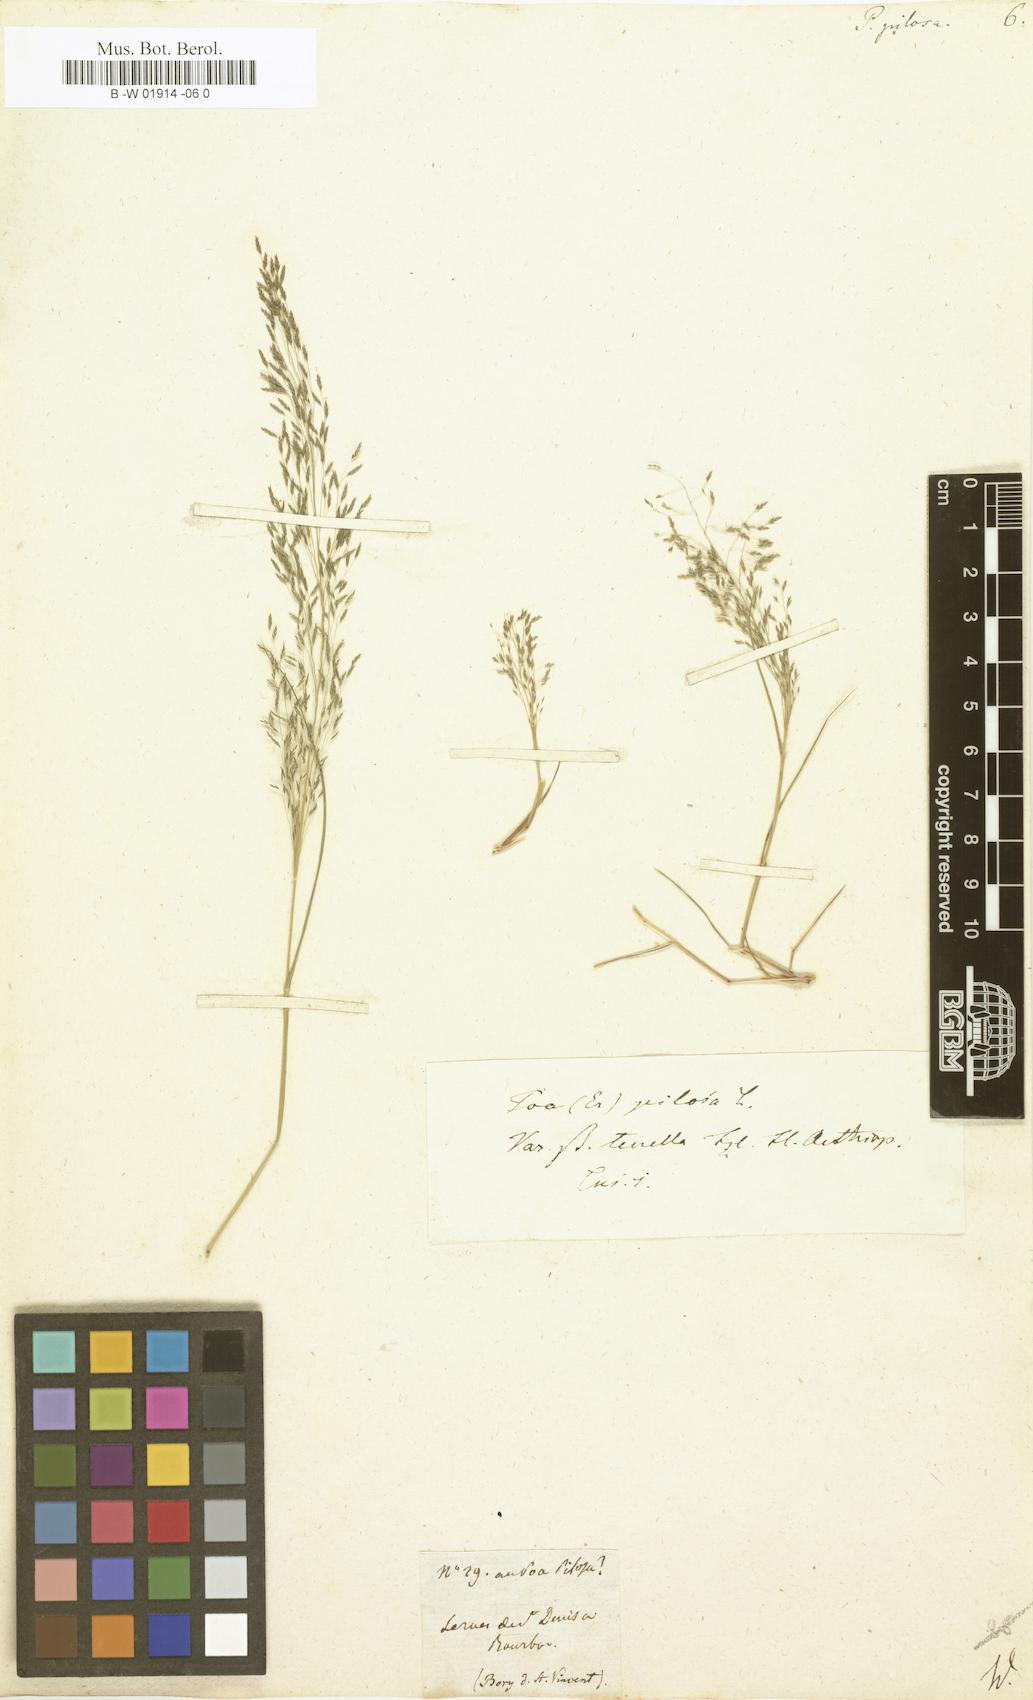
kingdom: Plantae
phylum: Tracheophyta
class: Liliopsida
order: Poales
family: Poaceae
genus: Eragrostis
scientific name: Eragrostis pilosa
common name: Indian lovegrass
